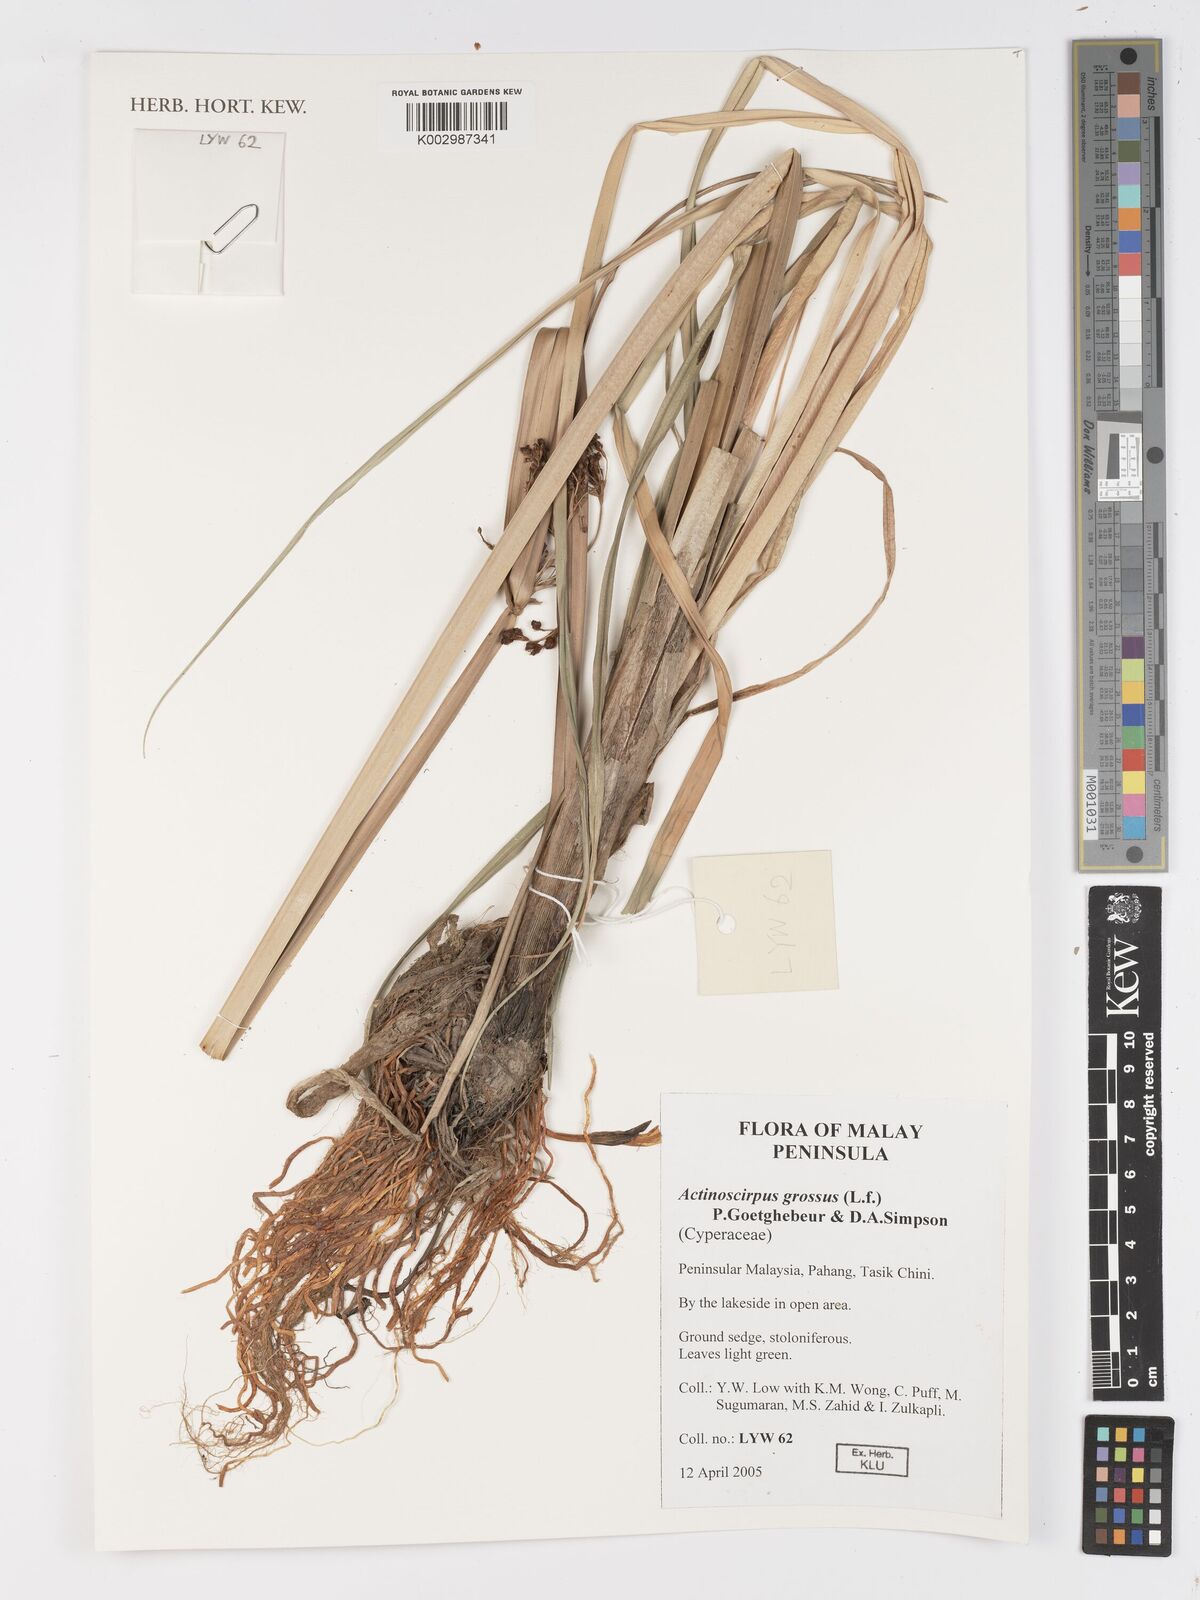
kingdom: Plantae
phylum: Tracheophyta
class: Liliopsida
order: Poales
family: Cyperaceae
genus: Actinoscirpus
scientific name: Actinoscirpus grossus
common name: Giant bur rush
